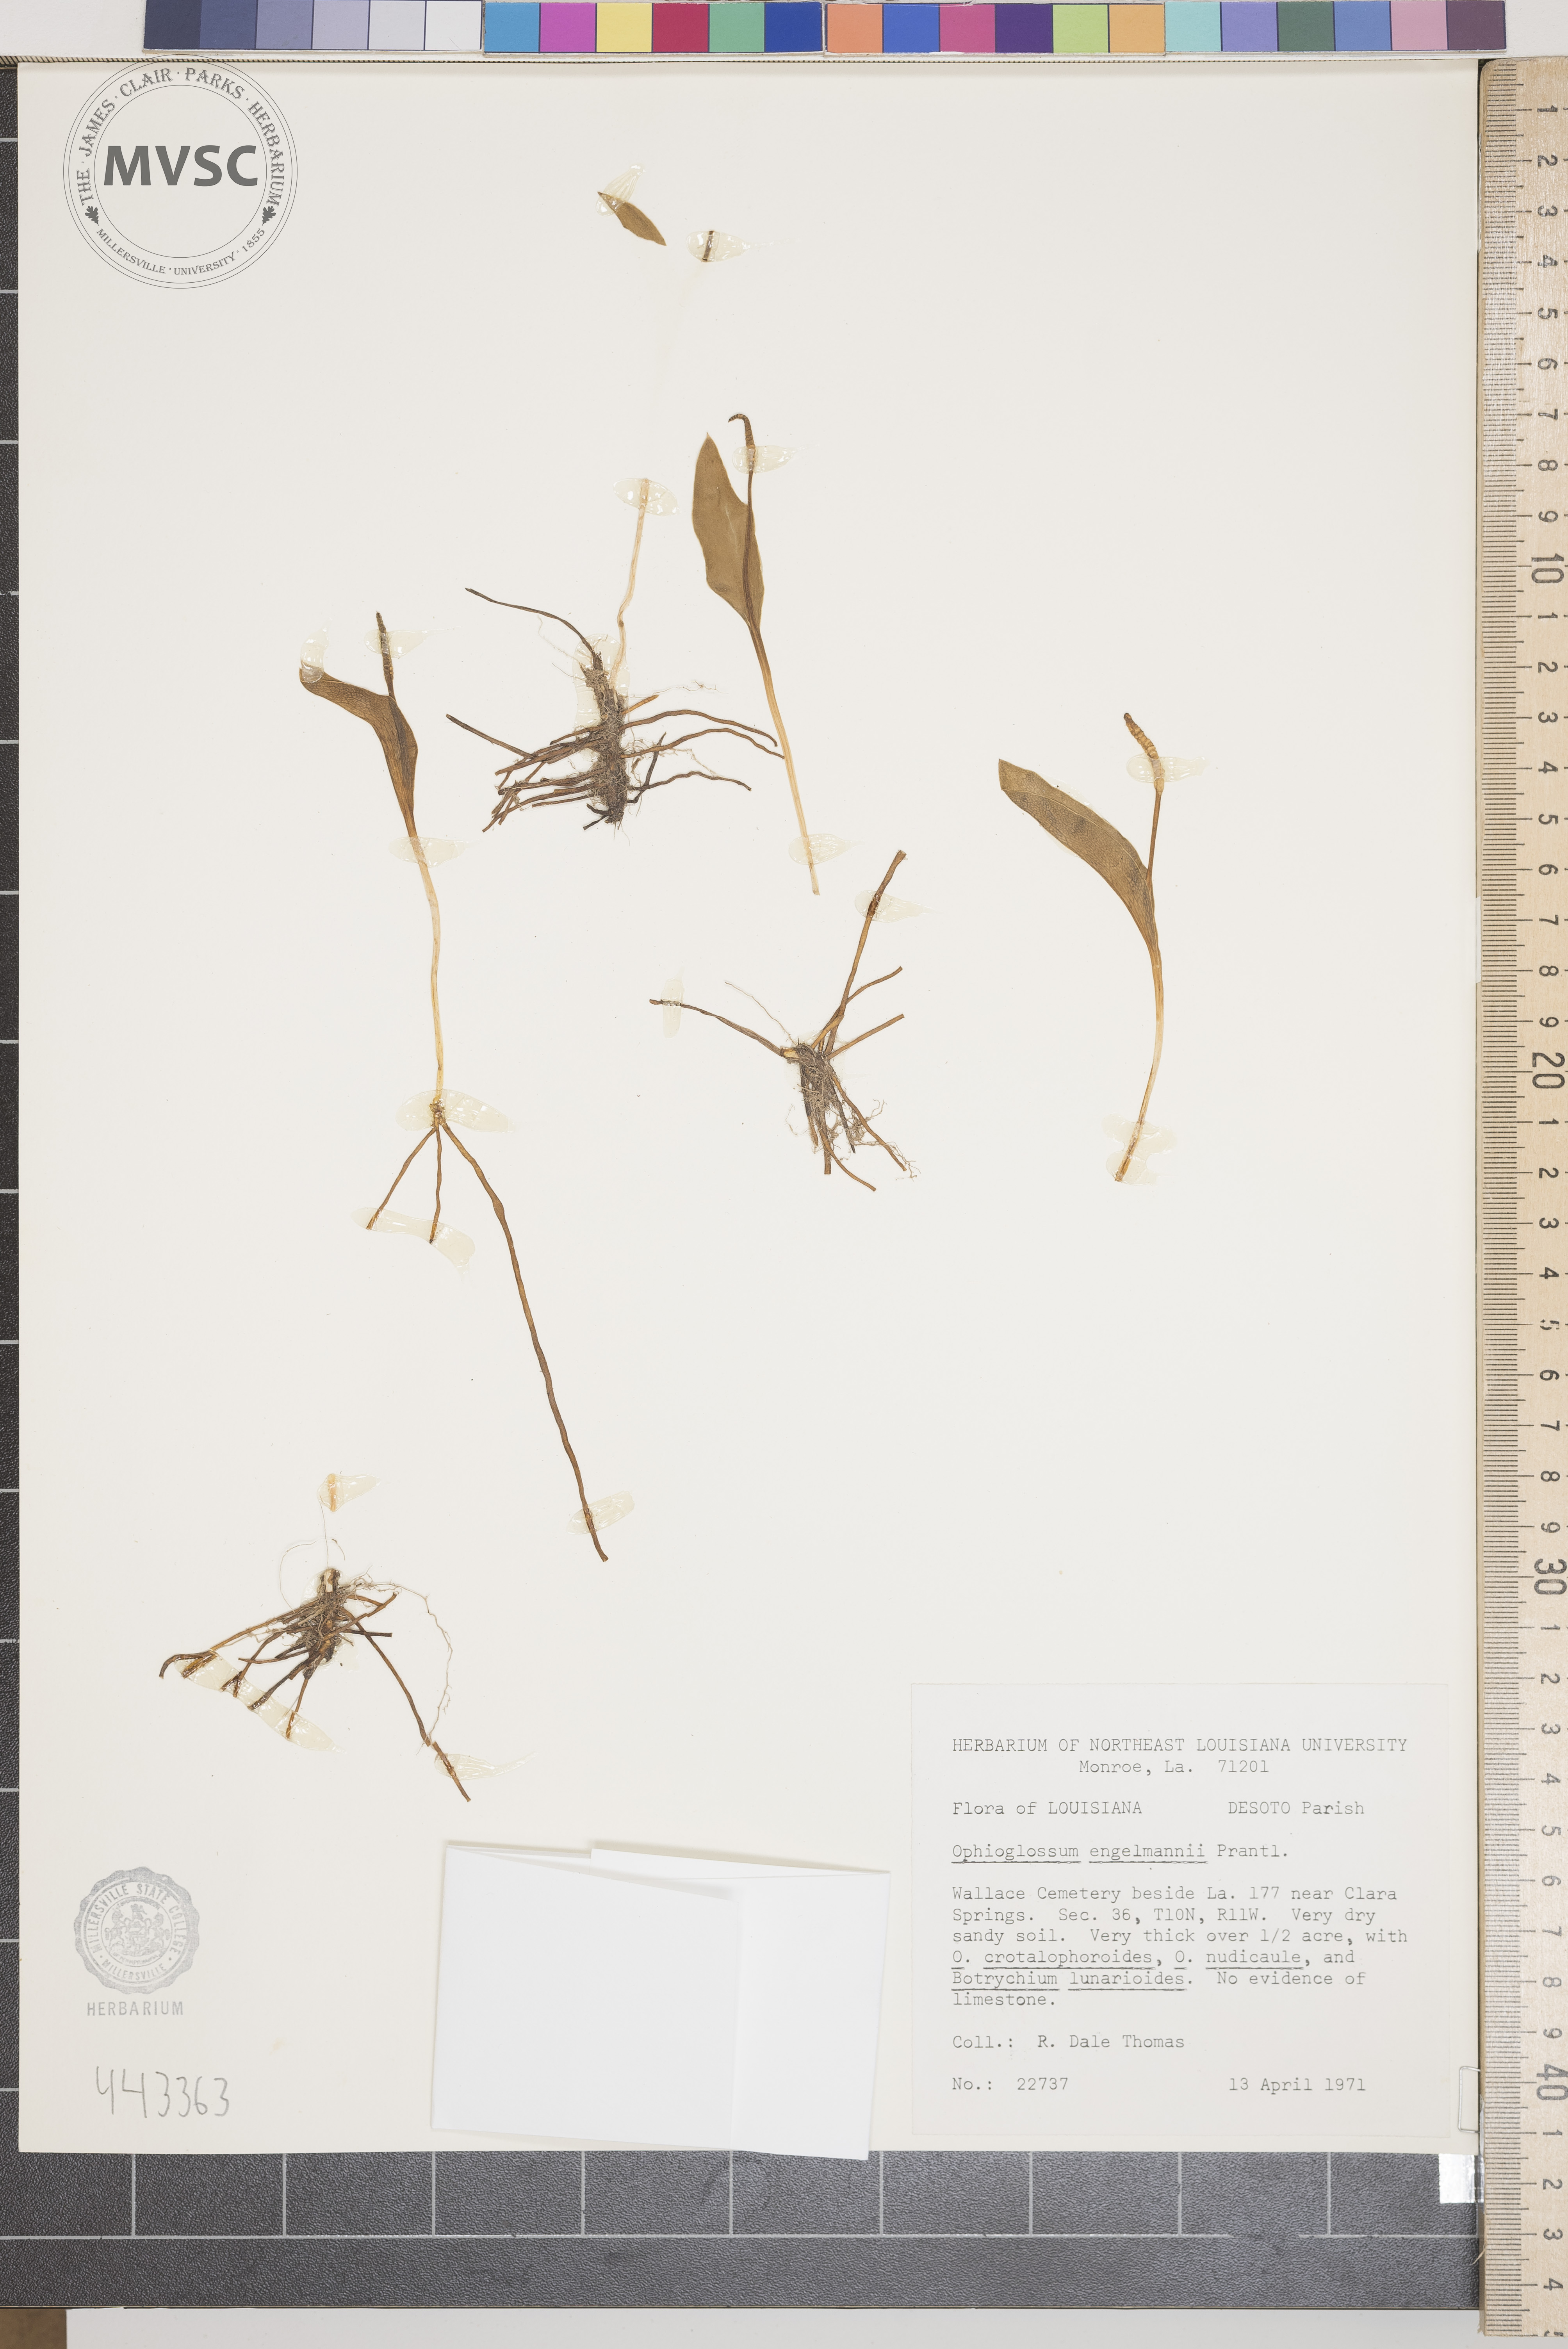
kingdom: Plantae
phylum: Tracheophyta
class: Polypodiopsida
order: Ophioglossales
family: Ophioglossaceae
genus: Ophioglossum
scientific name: Ophioglossum engelmannii
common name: Limestone adder's-tongue
